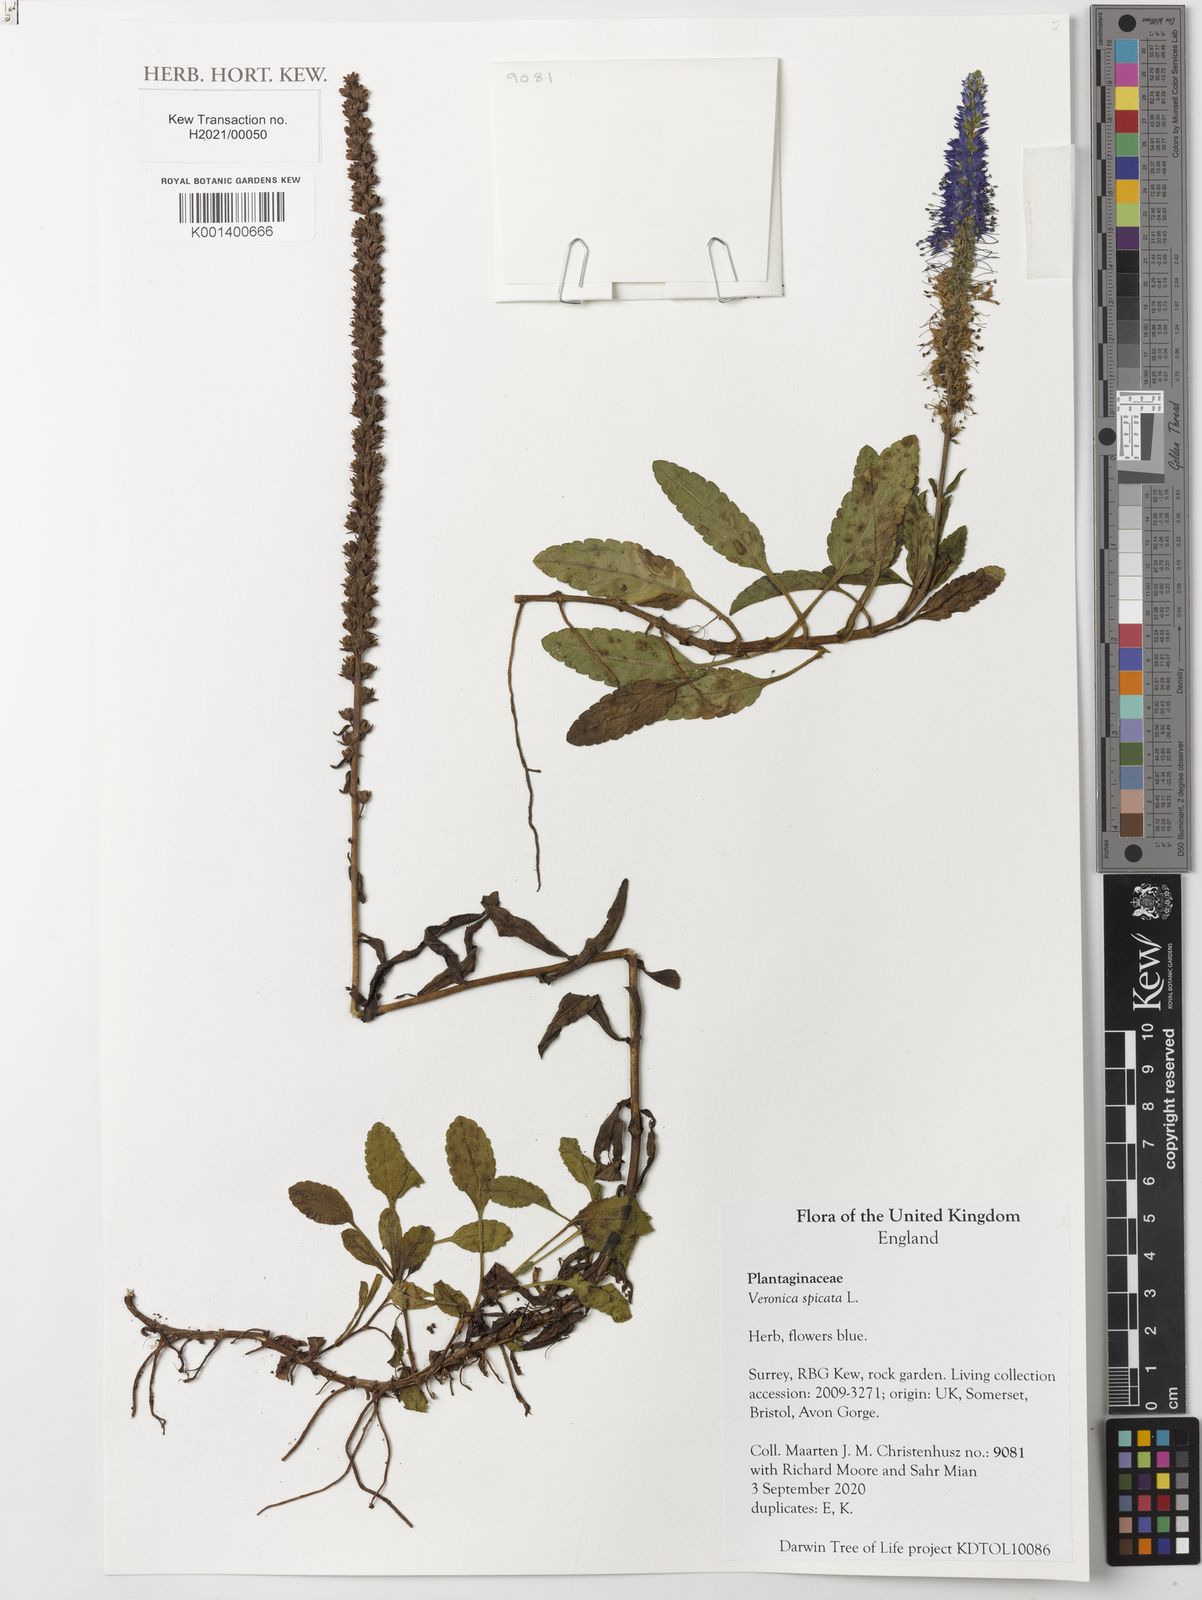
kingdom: Plantae
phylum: Tracheophyta
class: Magnoliopsida
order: Lamiales
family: Plantaginaceae
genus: Veronica
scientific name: Veronica spicata
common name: Spiked speedwell
